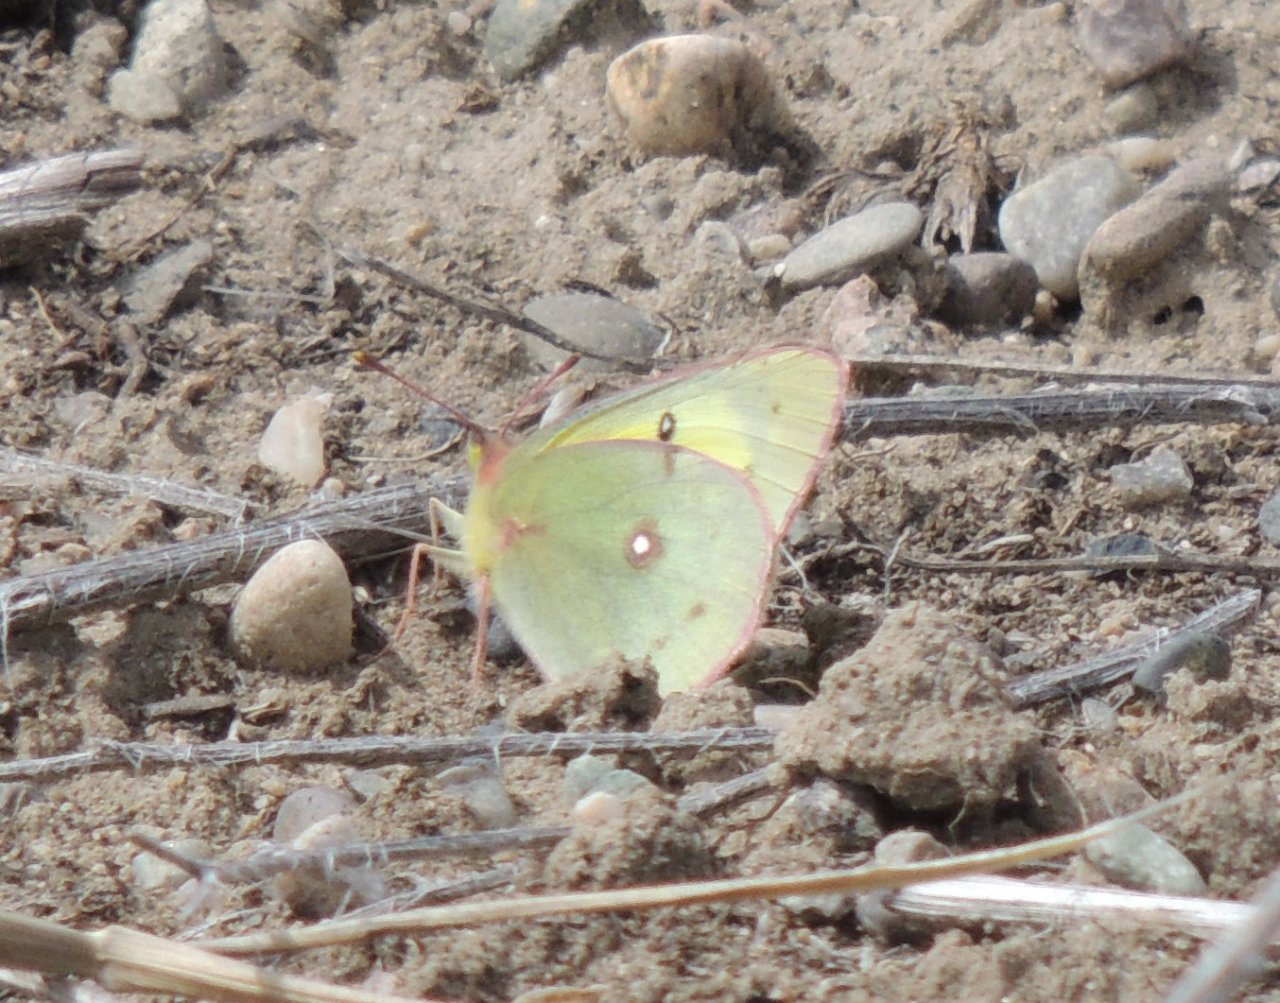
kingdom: Animalia
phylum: Arthropoda
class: Insecta
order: Lepidoptera
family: Pieridae
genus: Colias
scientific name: Colias eurytheme
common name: Orange Sulphur
